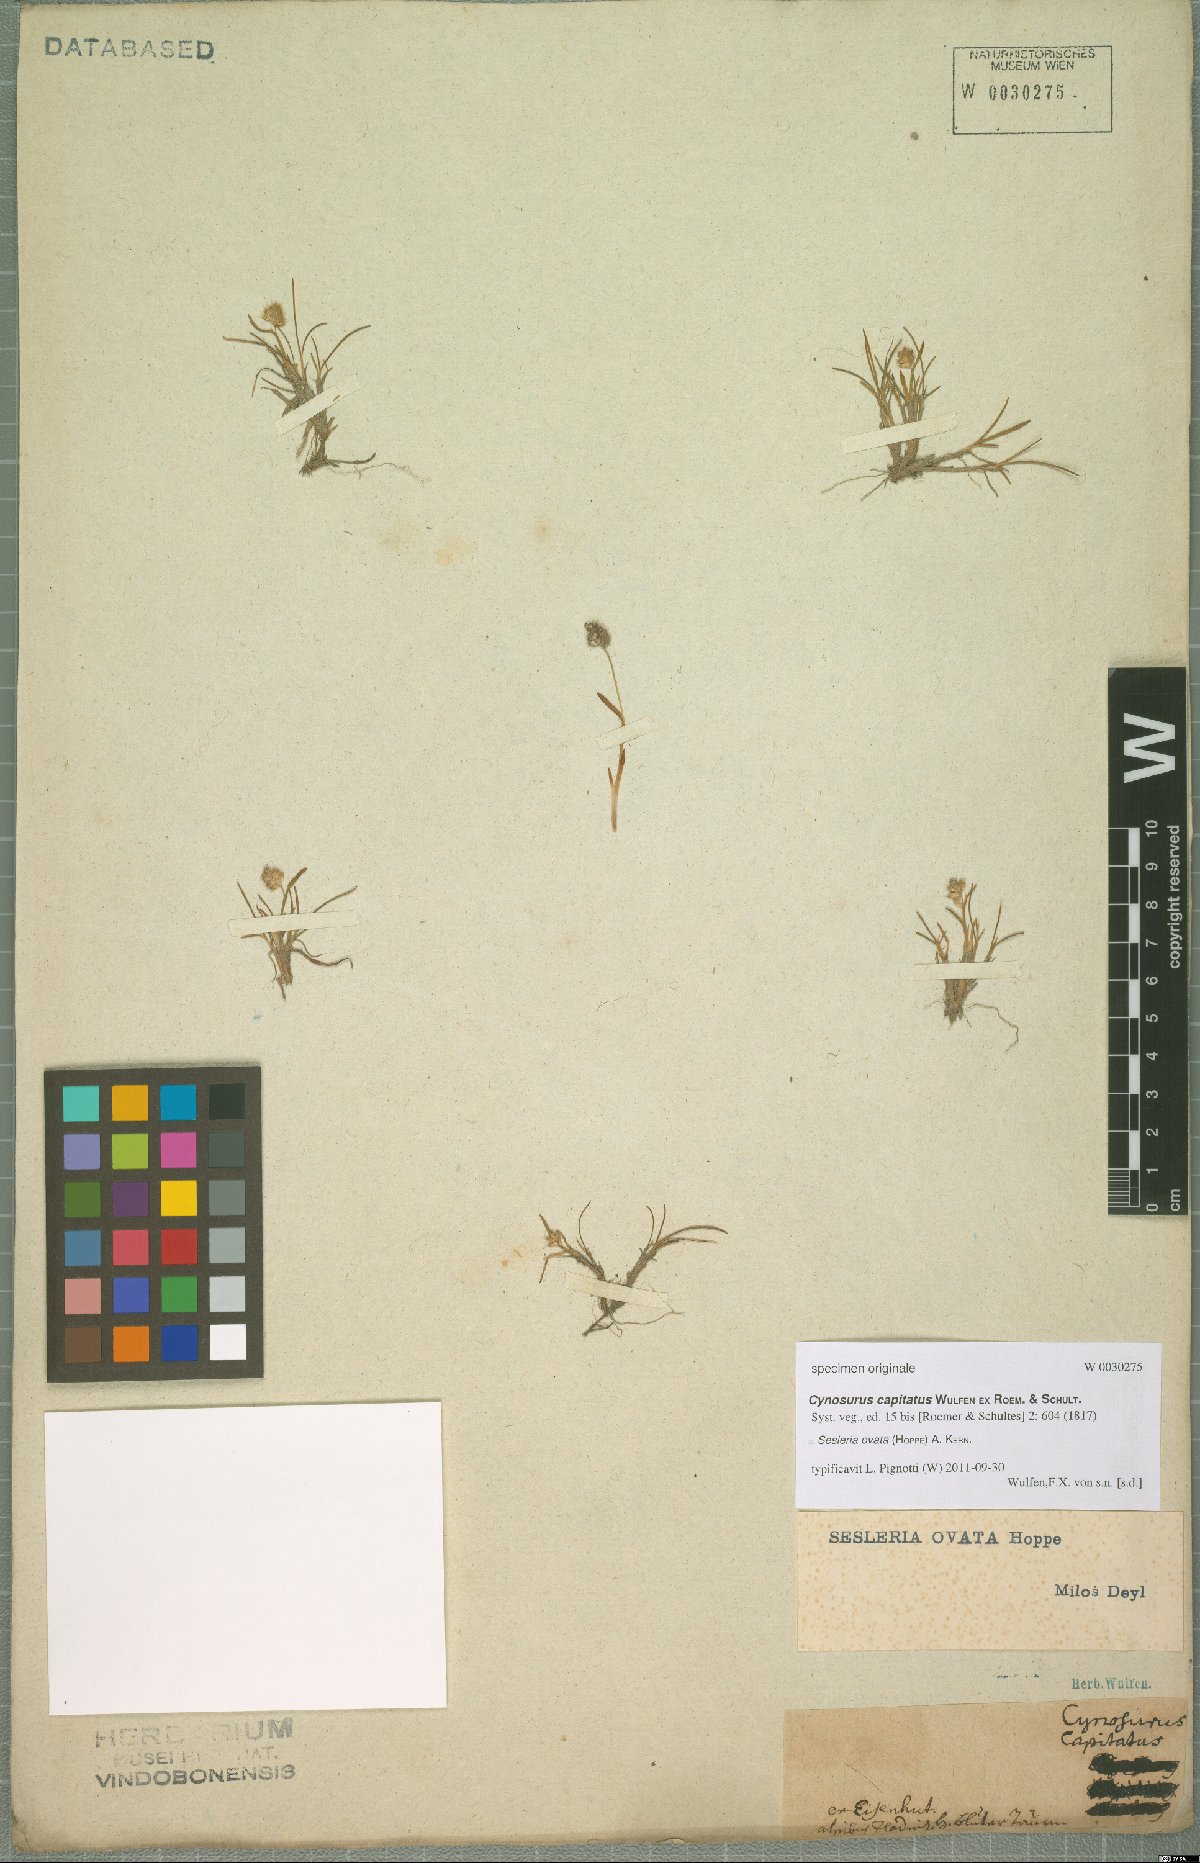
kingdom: Plantae
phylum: Tracheophyta
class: Liliopsida
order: Poales
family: Poaceae
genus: Psilathera
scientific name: Psilathera ovata
